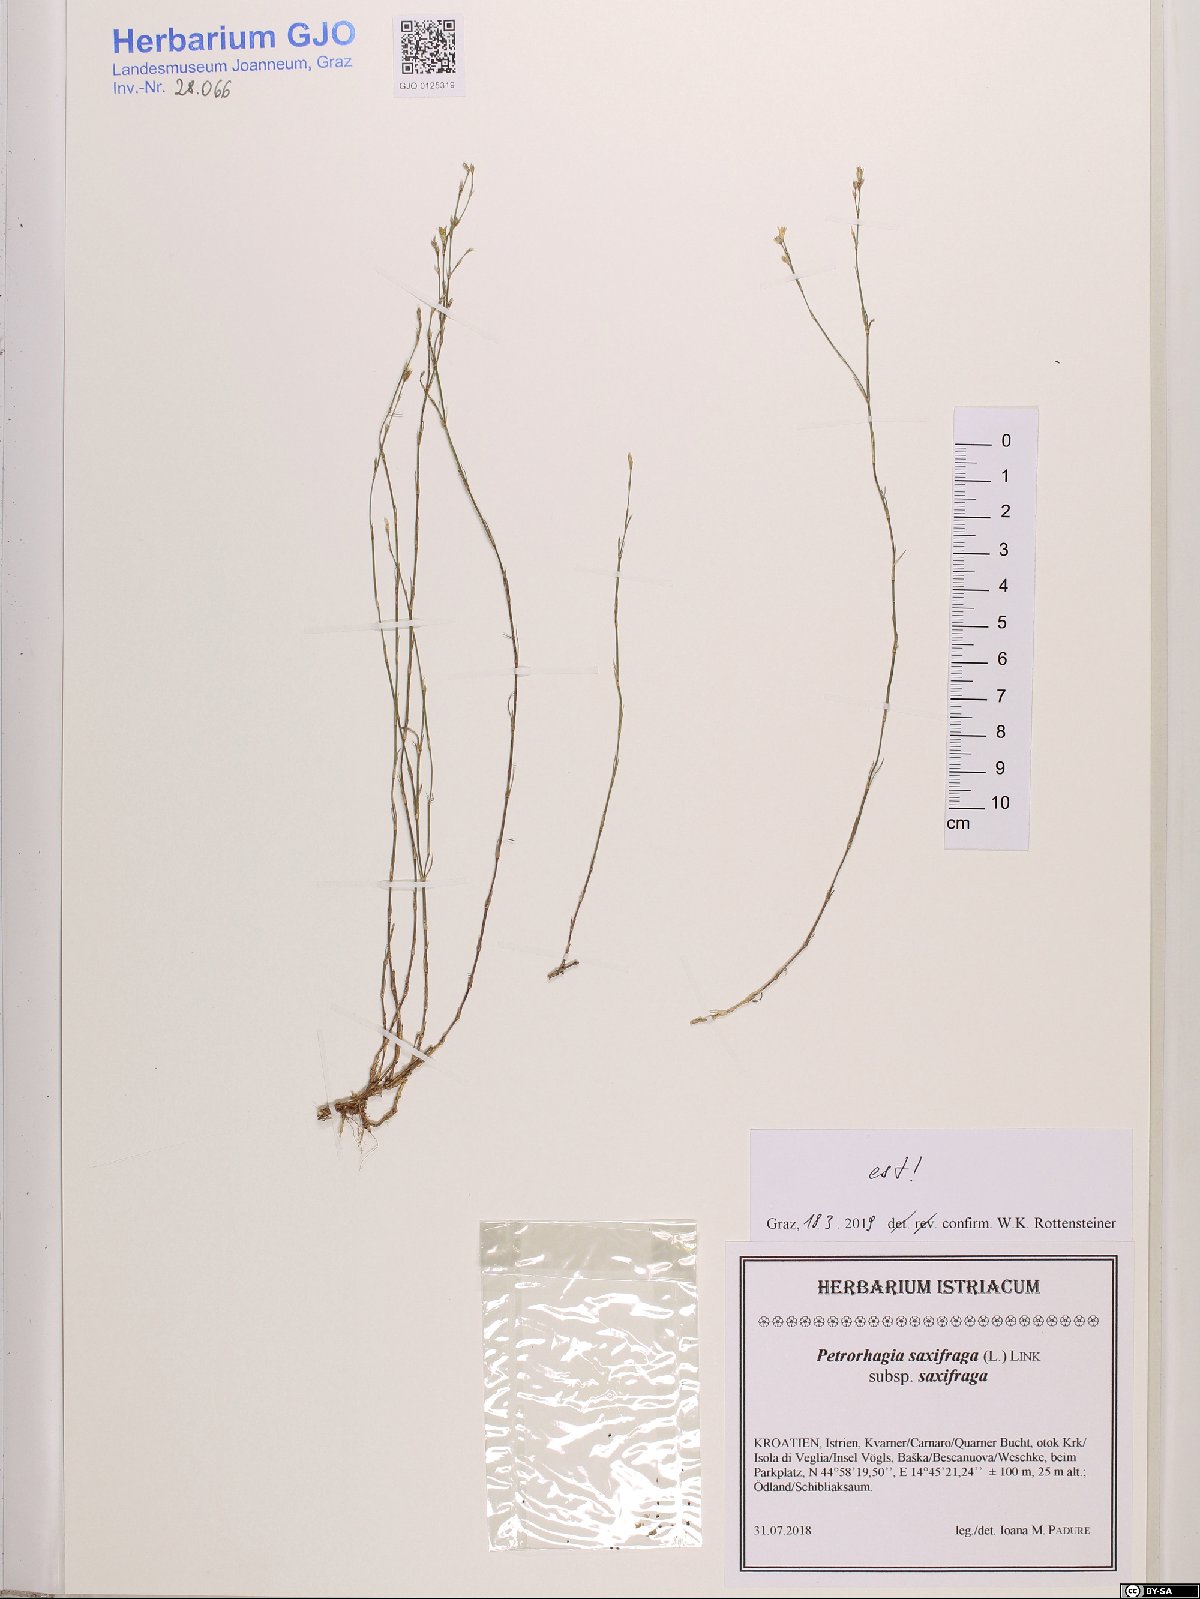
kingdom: Plantae
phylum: Tracheophyta
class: Magnoliopsida
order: Caryophyllales
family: Caryophyllaceae
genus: Petrorhagia
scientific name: Petrorhagia saxifraga
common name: Tunicflower
